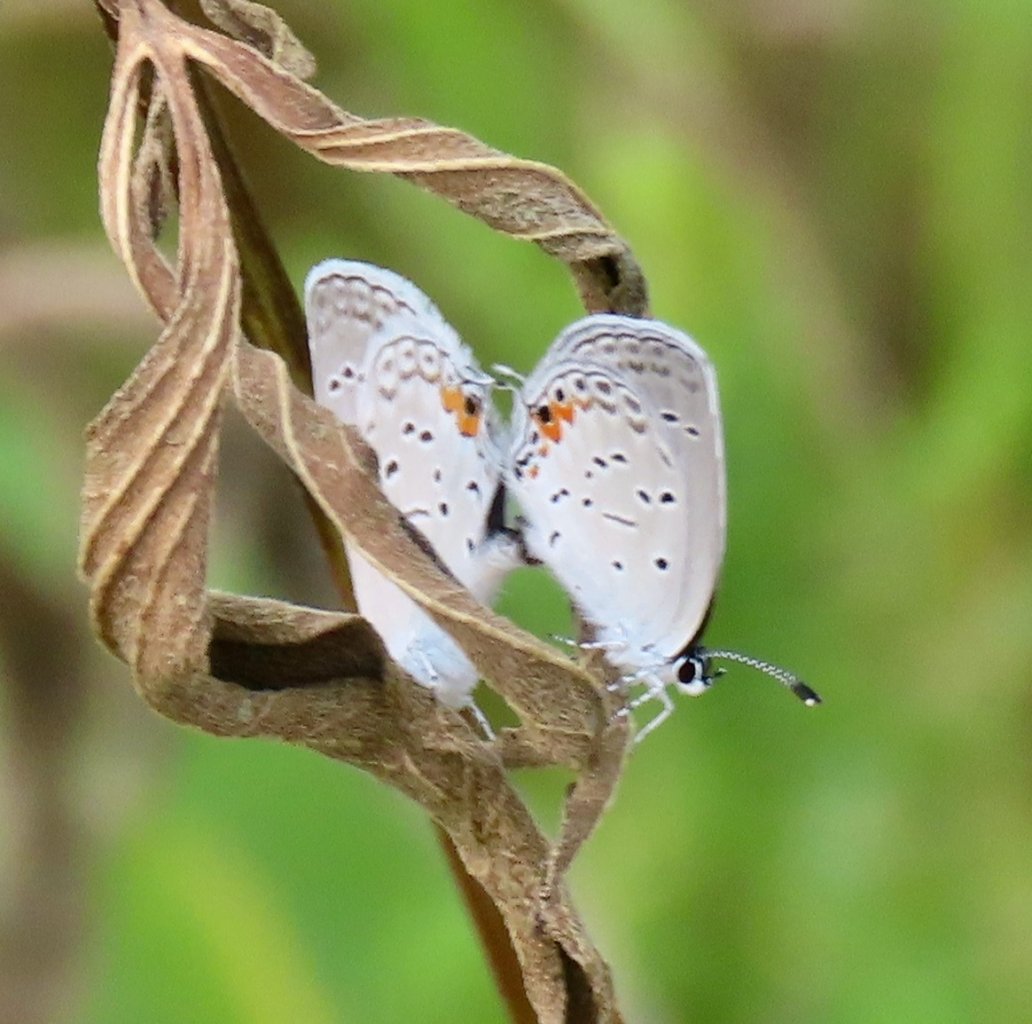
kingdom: Animalia
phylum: Arthropoda
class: Insecta
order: Lepidoptera
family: Lycaenidae
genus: Elkalyce
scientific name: Elkalyce comyntas
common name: Eastern Tailed-Blue
